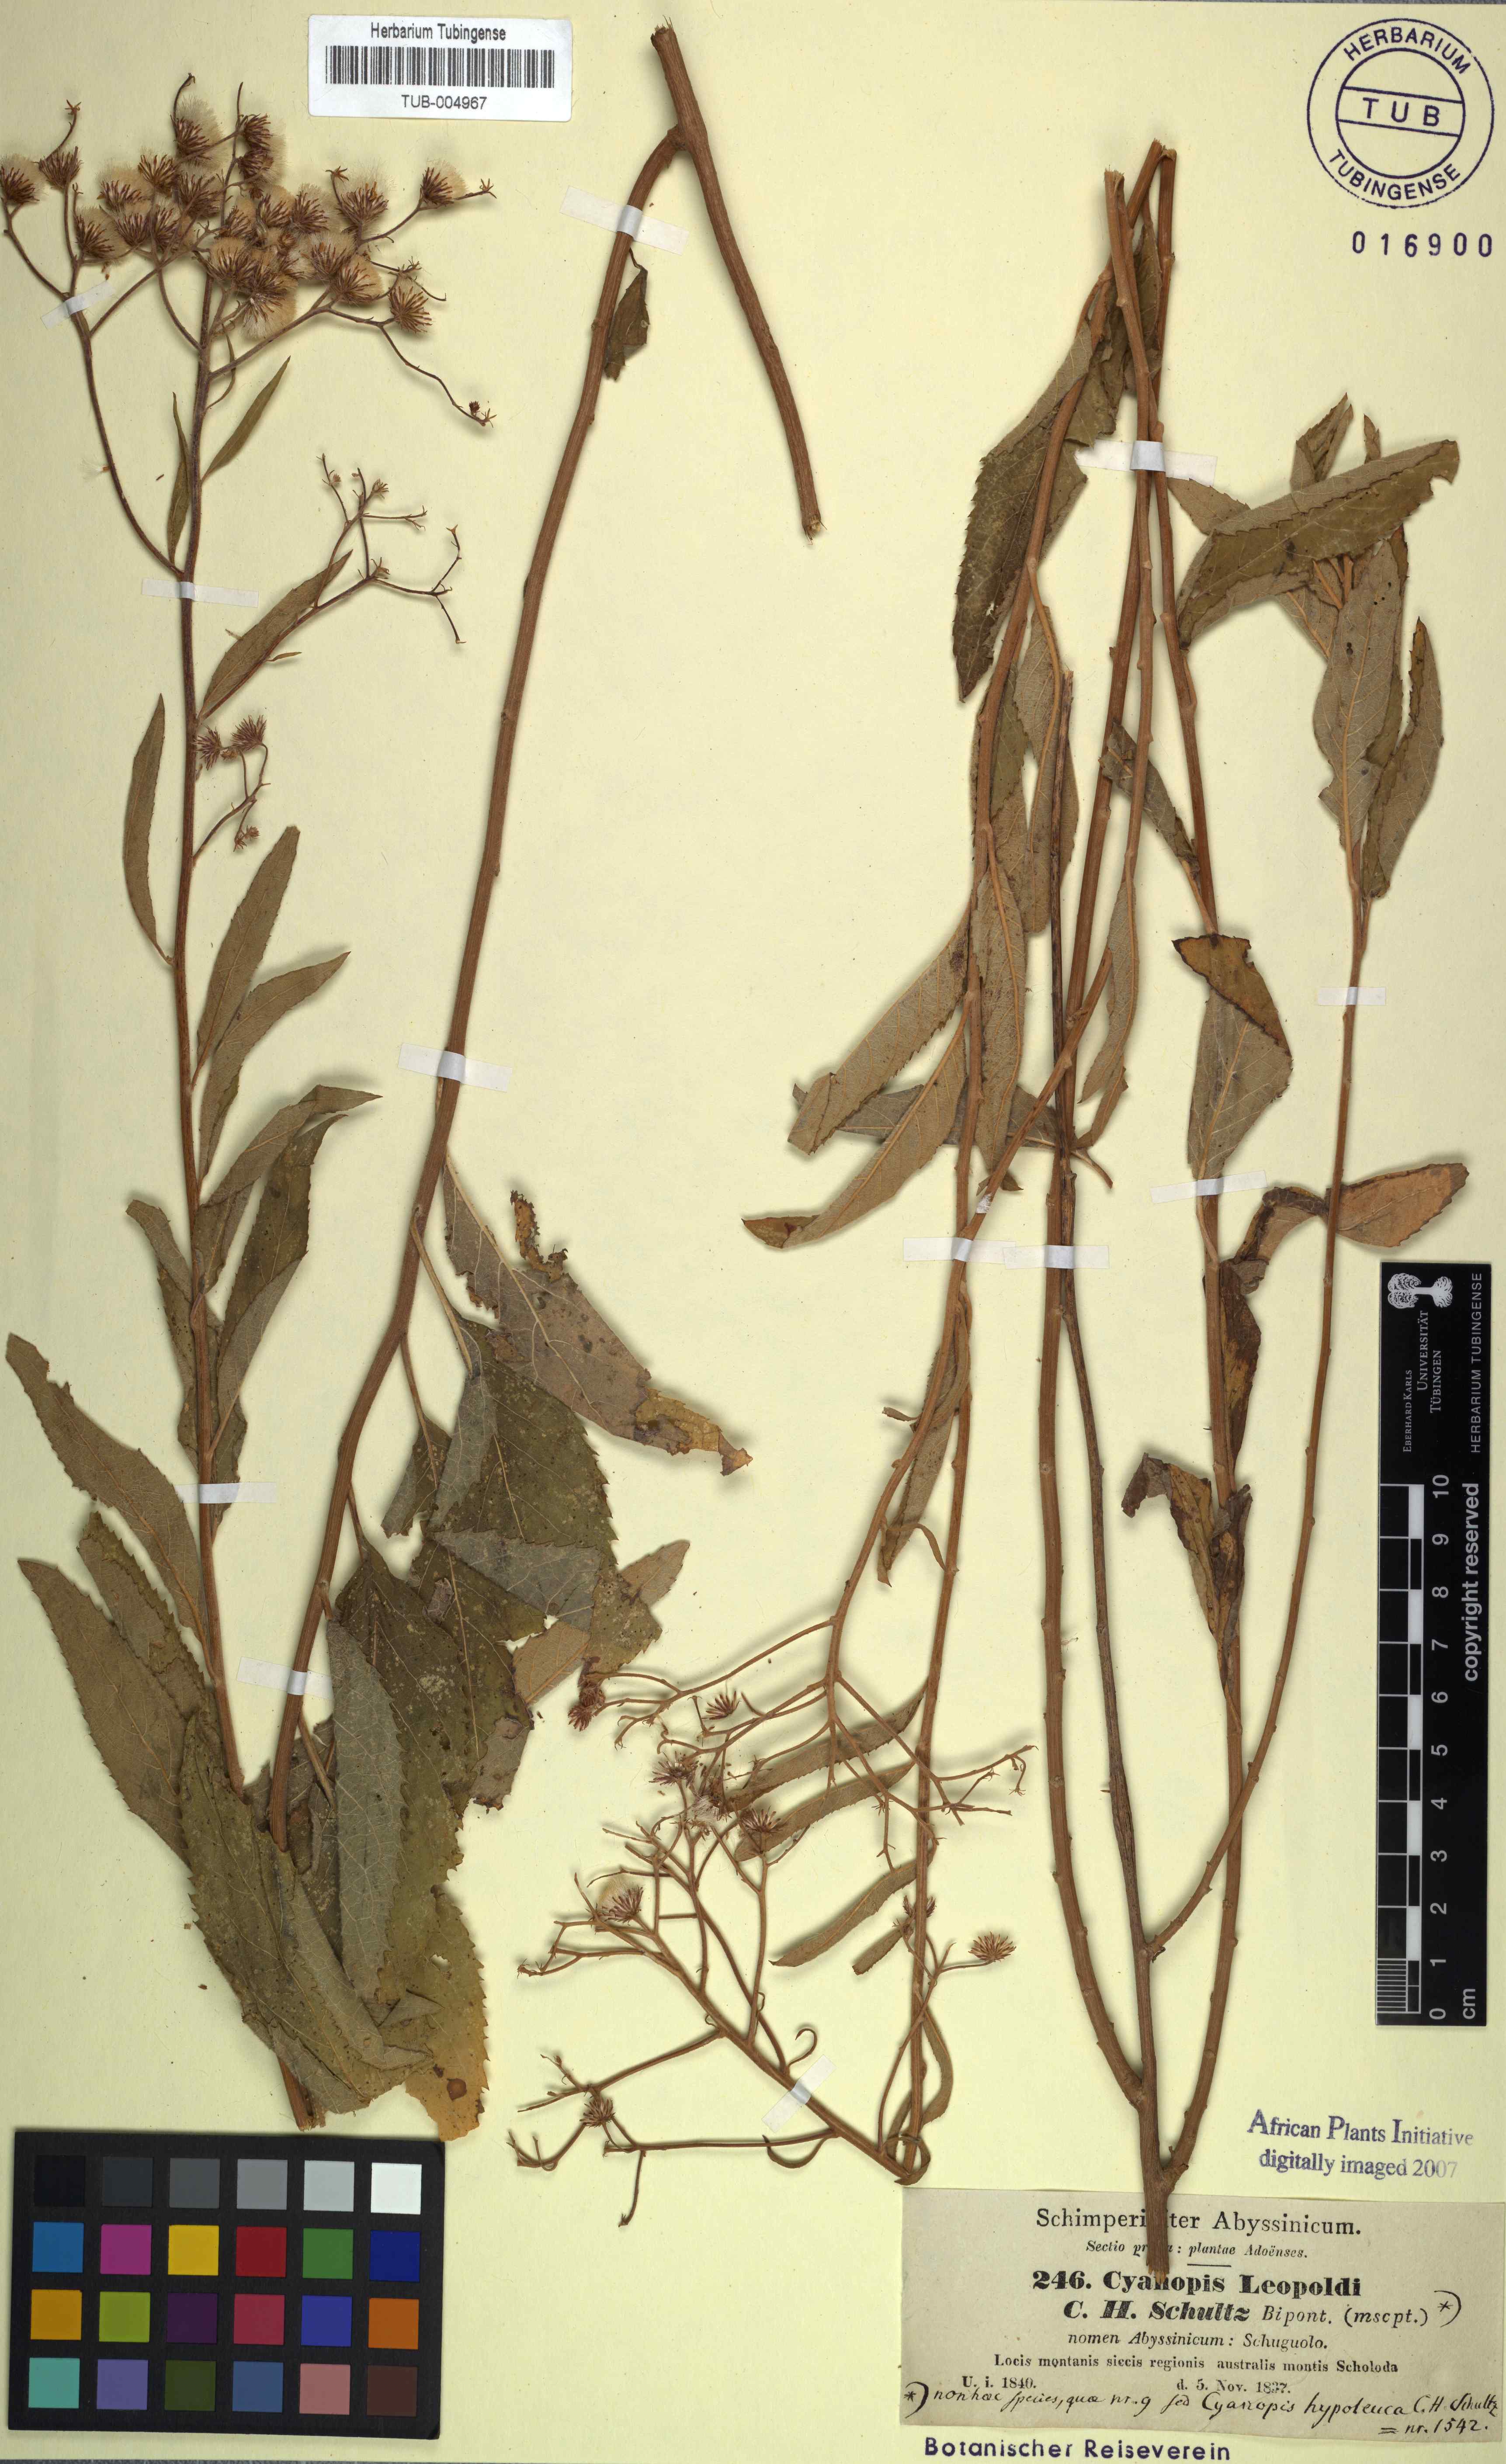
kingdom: Plantae
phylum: Tracheophyta
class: Magnoliopsida
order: Asterales
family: Asteraceae
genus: Sinclairia
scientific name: Sinclairia caducifolia
